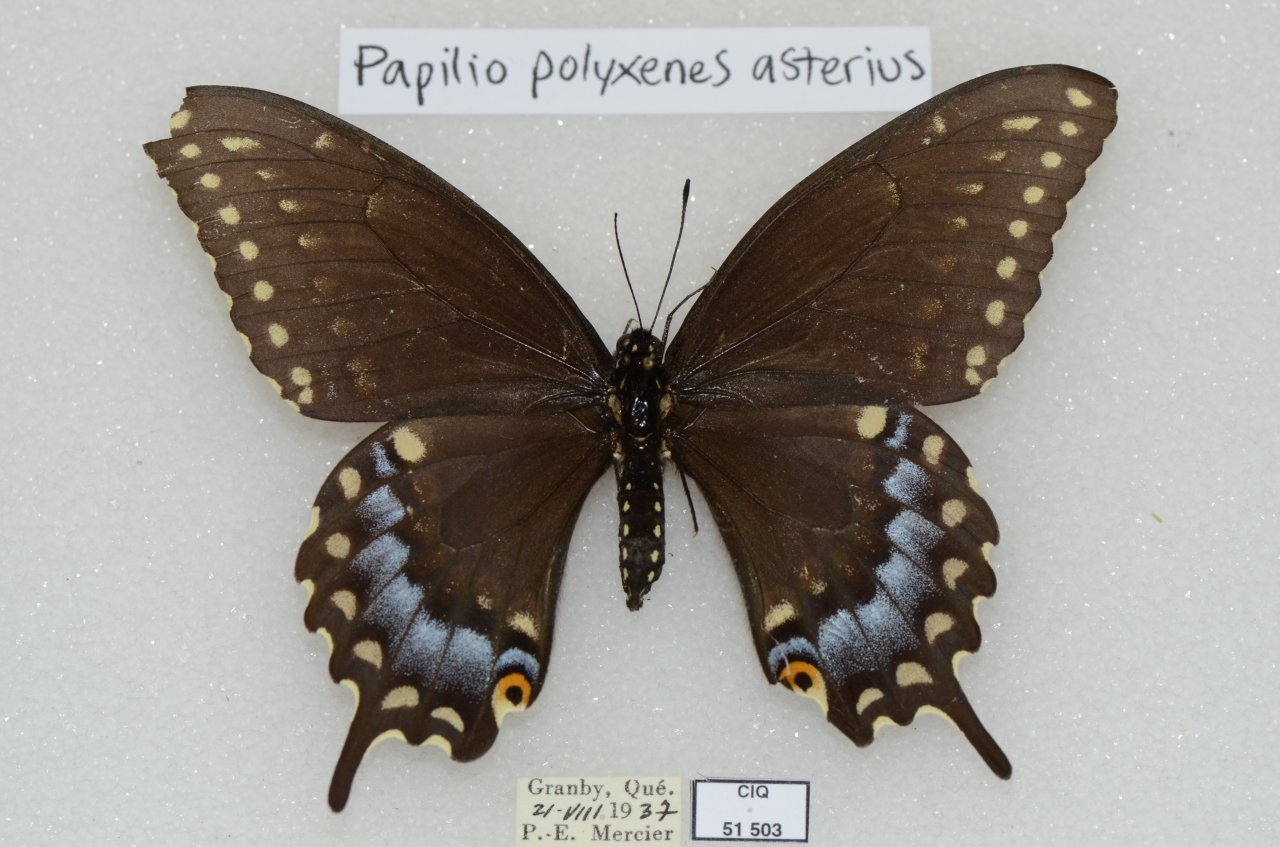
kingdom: Animalia
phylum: Arthropoda
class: Insecta
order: Lepidoptera
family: Papilionidae
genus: Papilio
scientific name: Papilio polyxenes
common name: Black Swallowtail
